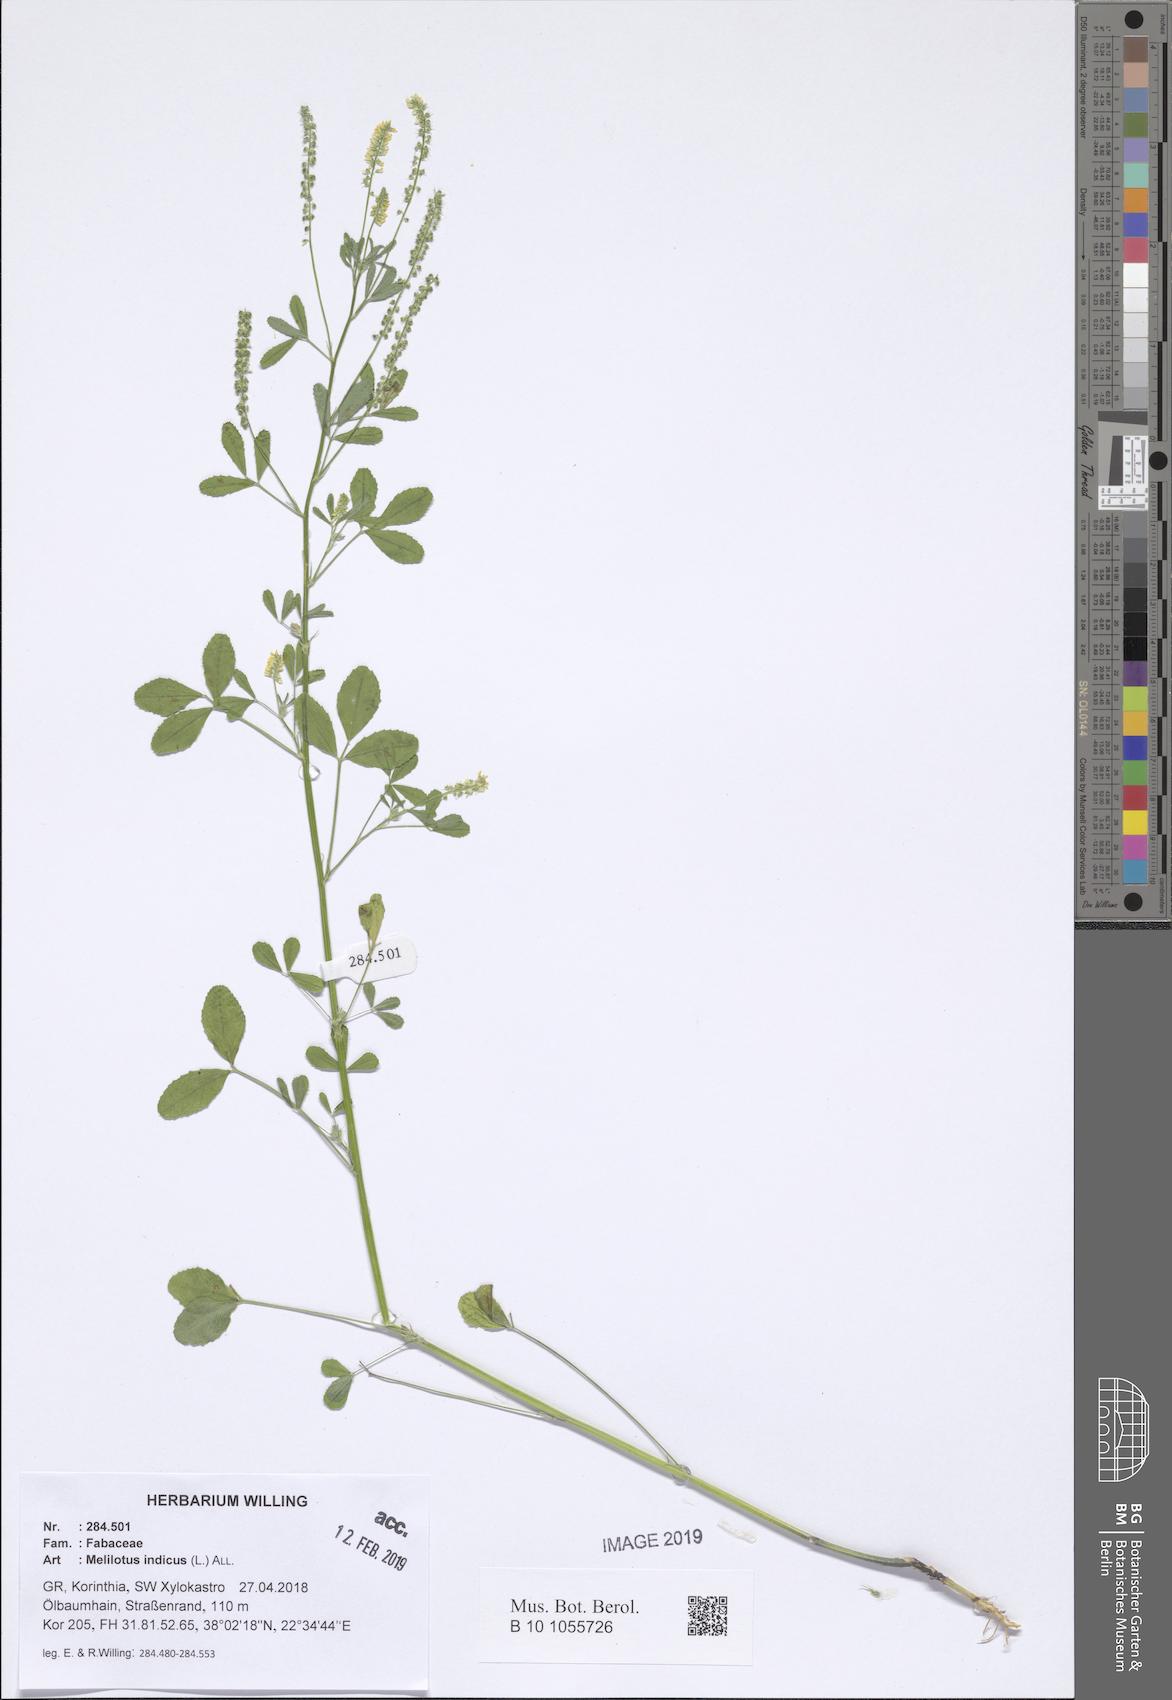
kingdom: Plantae
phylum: Tracheophyta
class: Magnoliopsida
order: Fabales
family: Fabaceae
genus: Melilotus
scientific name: Melilotus indicus
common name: Small melilot
